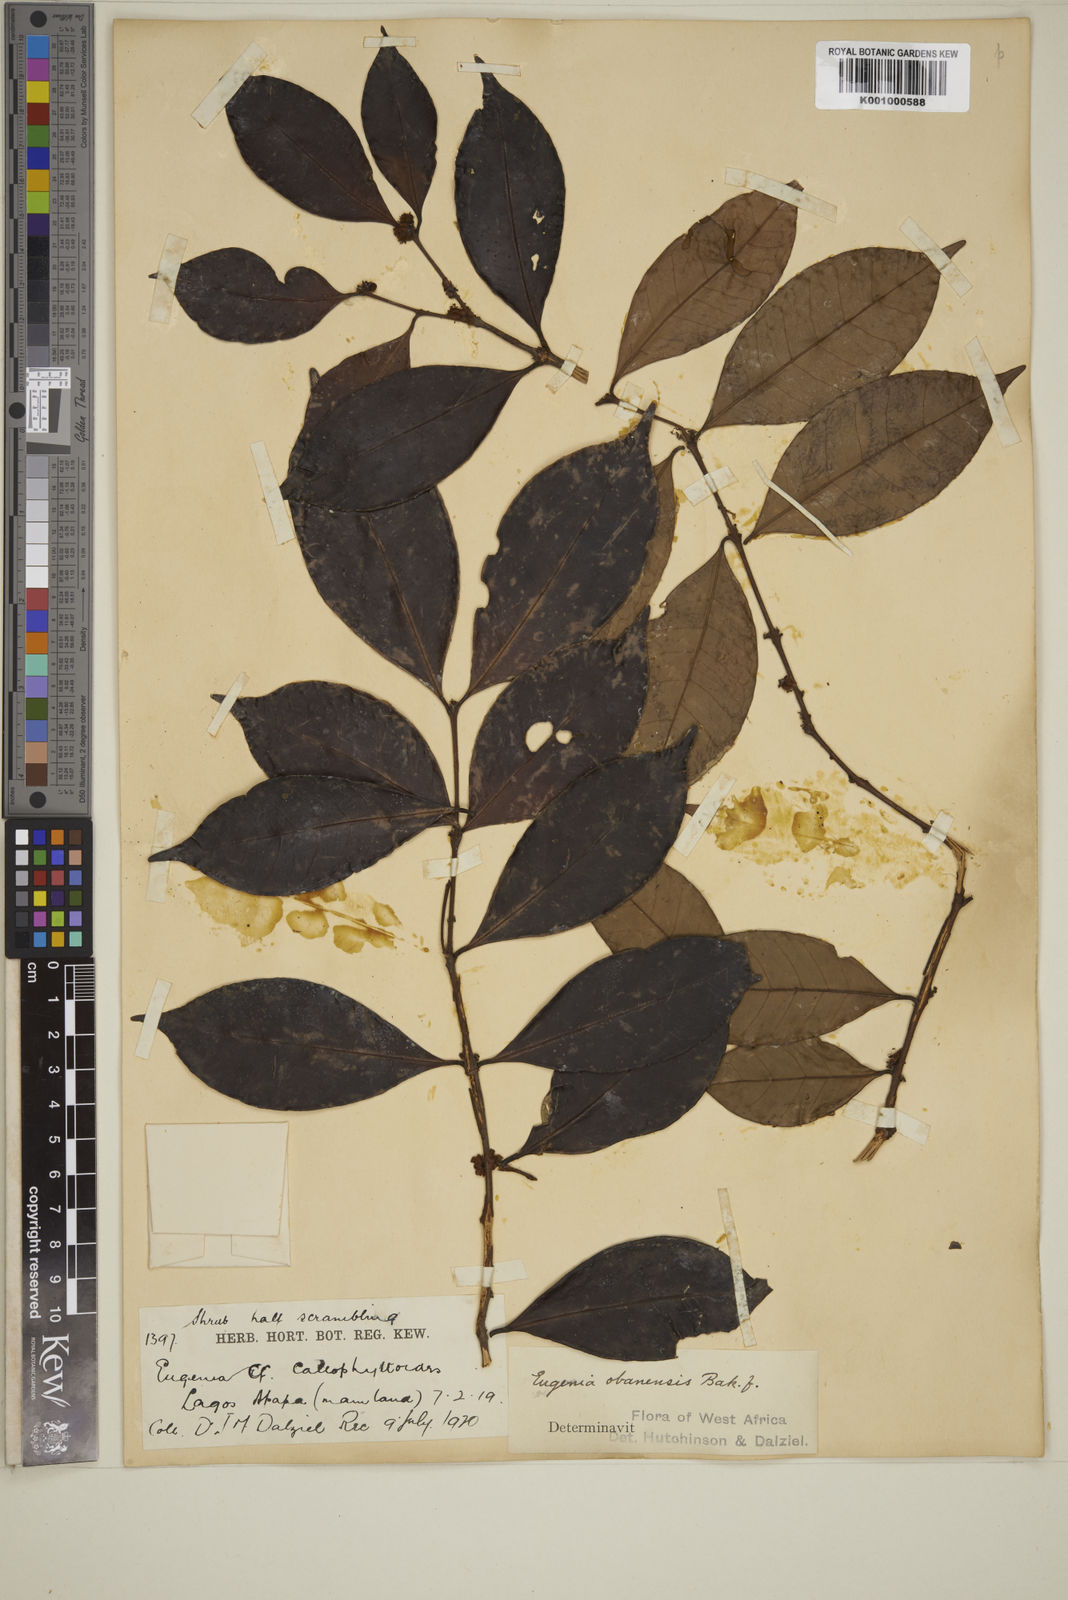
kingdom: Plantae
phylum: Tracheophyta
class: Magnoliopsida
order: Myrtales
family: Myrtaceae
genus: Eugenia
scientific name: Eugenia obanensis
